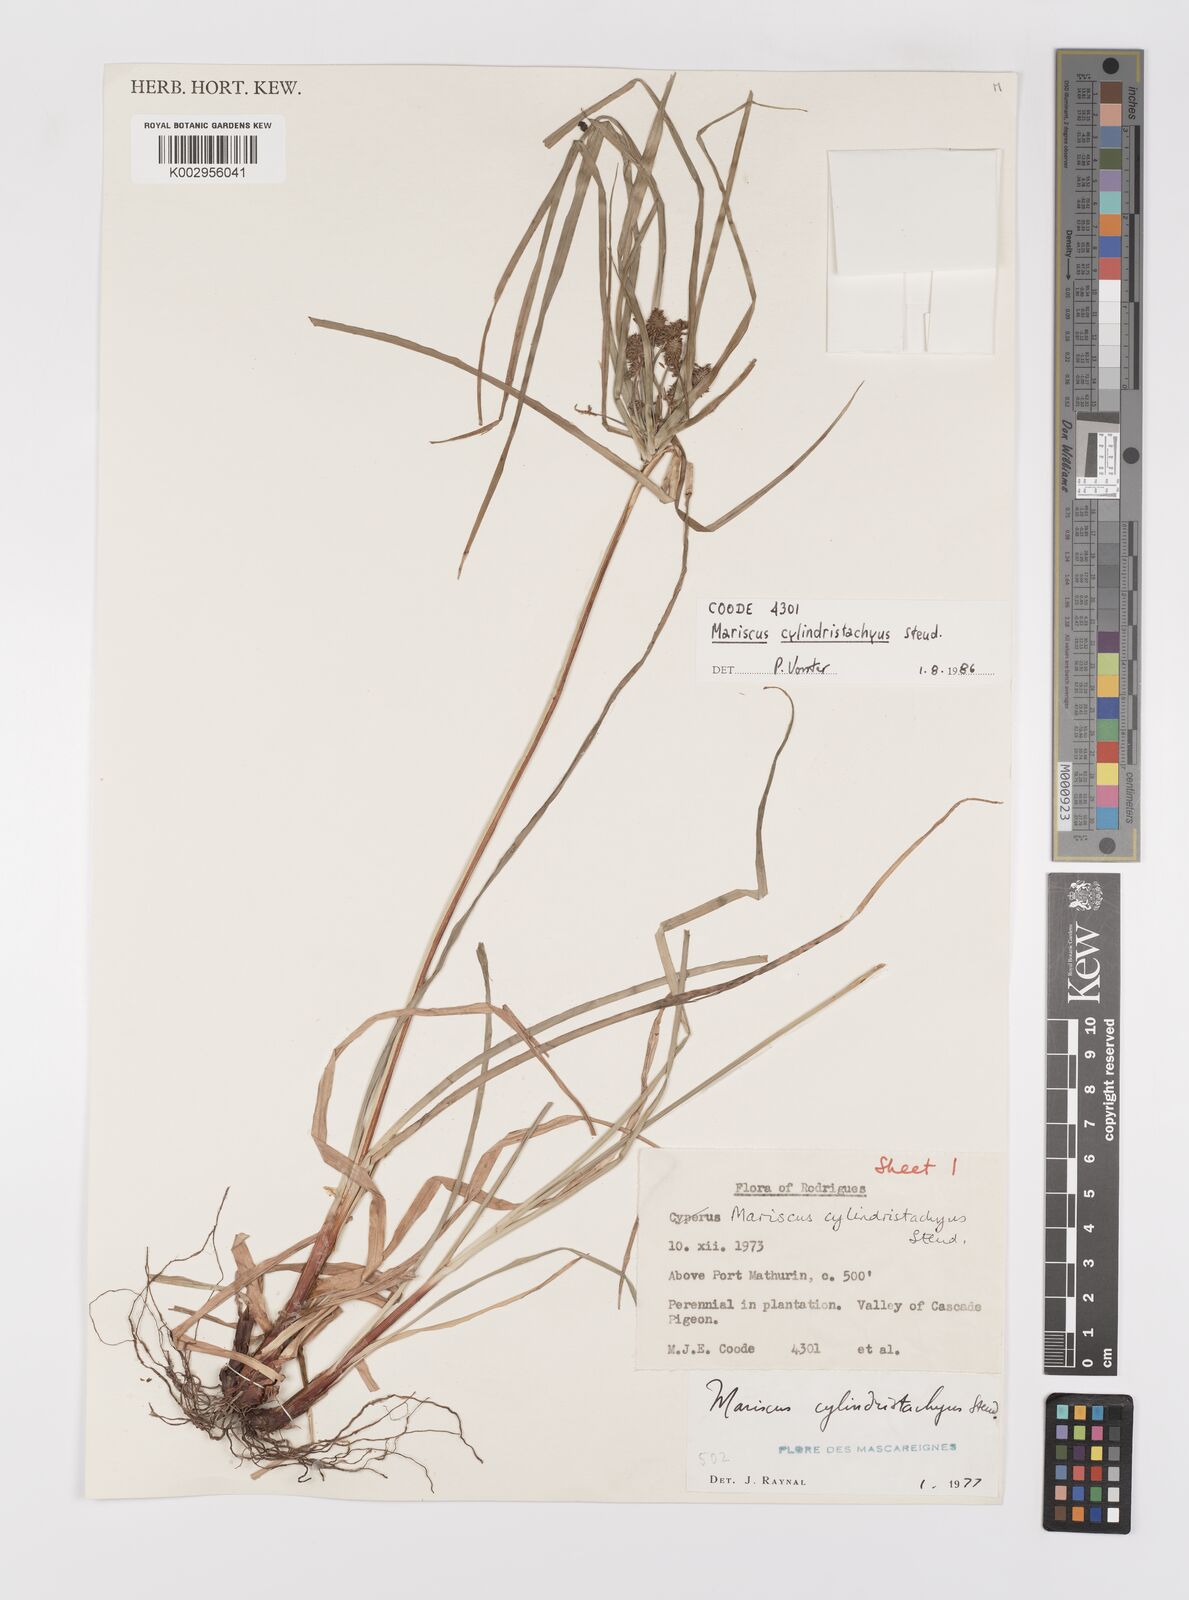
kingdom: Plantae
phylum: Tracheophyta
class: Liliopsida
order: Poales
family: Cyperaceae
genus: Cyperus
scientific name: Cyperus cyperoides
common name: Pacific island flat sedge
